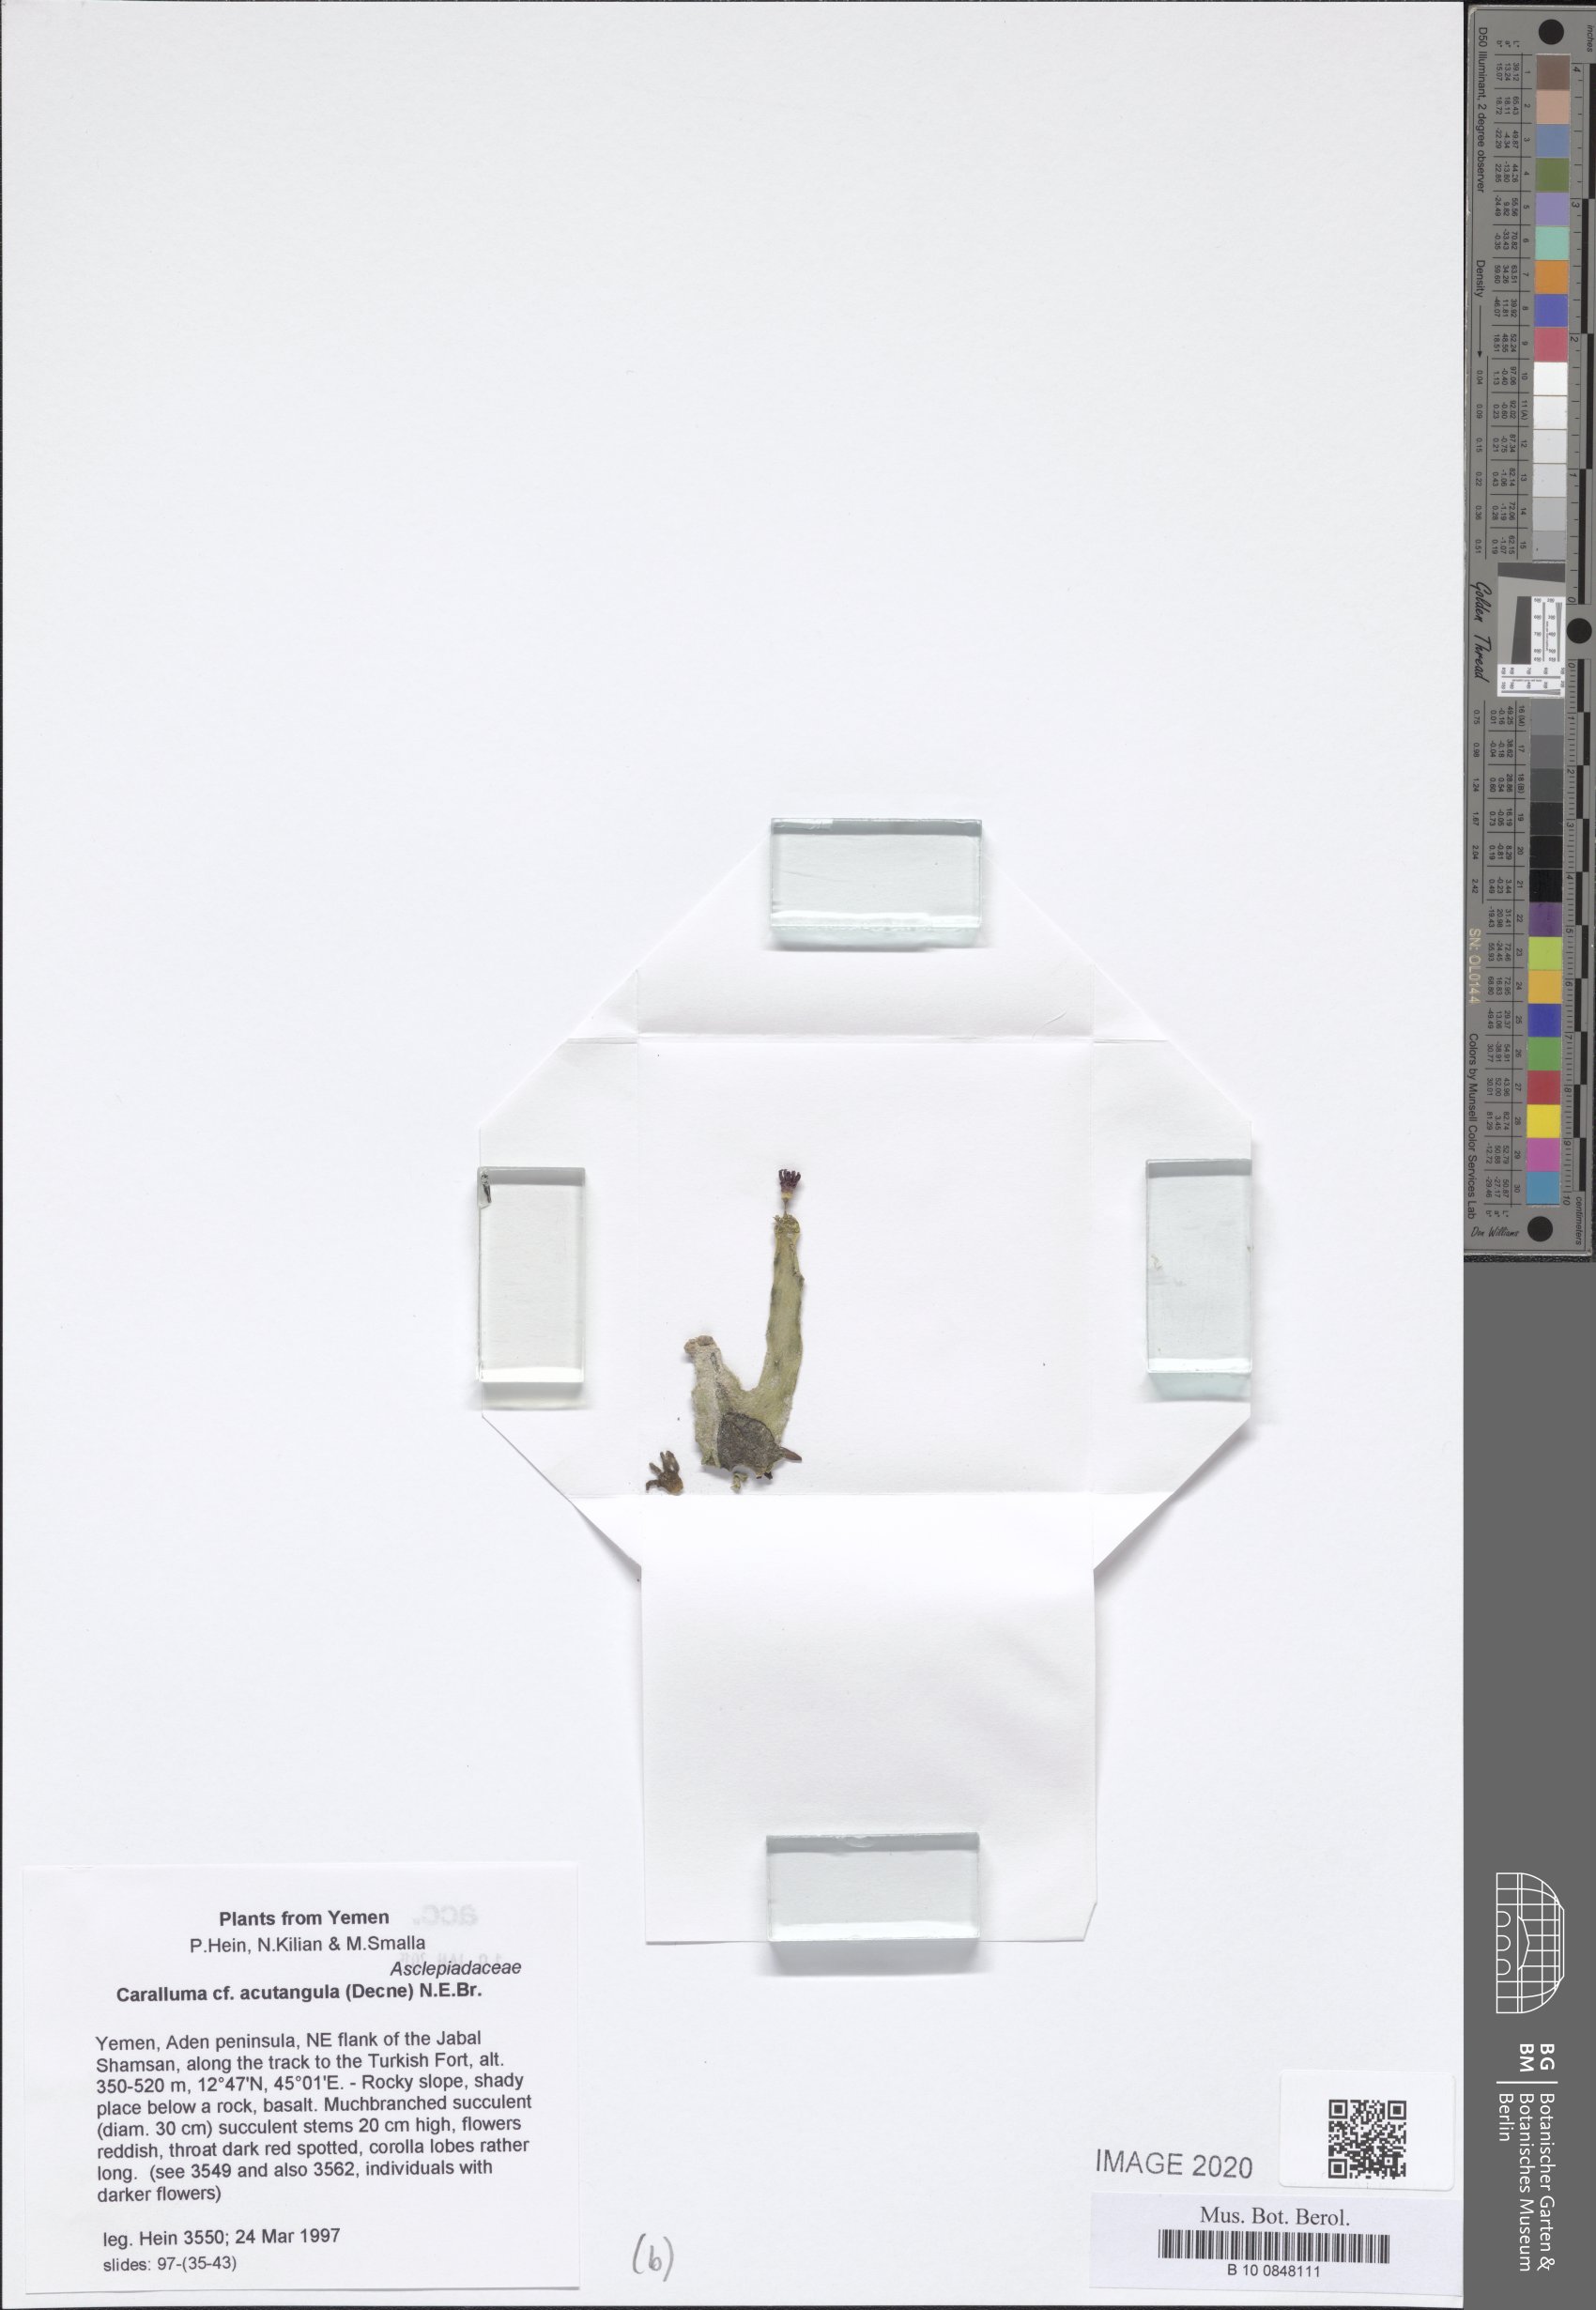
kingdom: Plantae
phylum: Tracheophyta
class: Magnoliopsida
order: Gentianales
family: Apocynaceae
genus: Ceropegia
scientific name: Ceropegia adenensis
